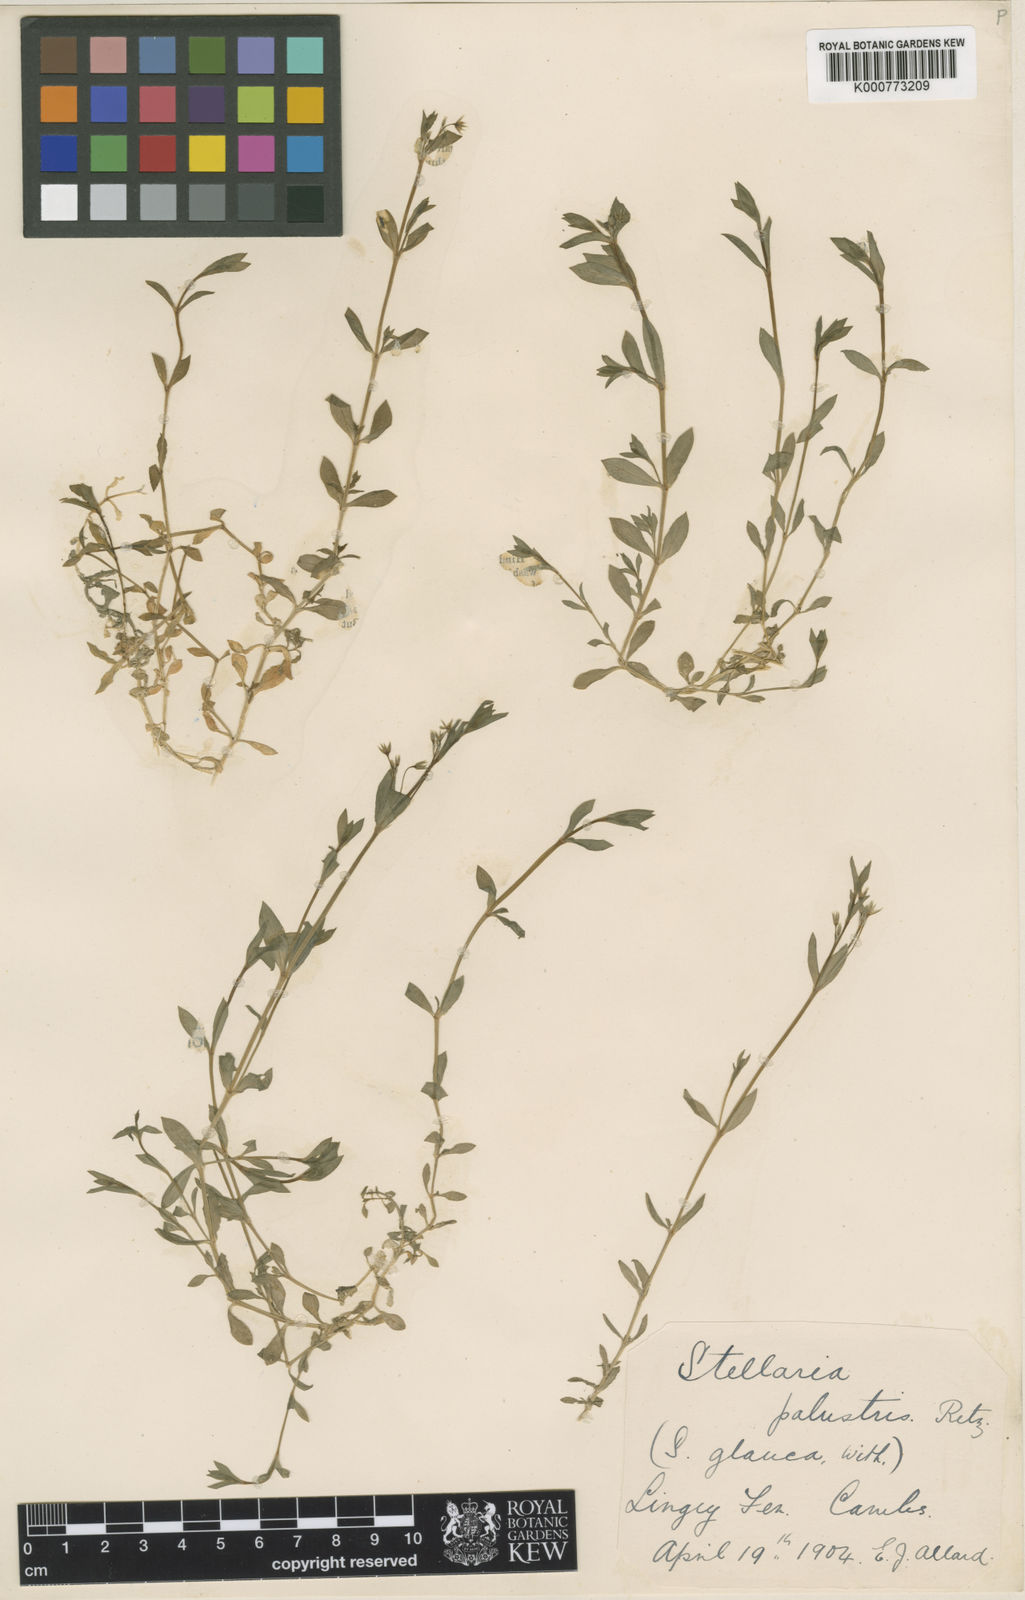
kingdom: Plantae
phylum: Tracheophyta
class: Magnoliopsida
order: Caryophyllales
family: Caryophyllaceae
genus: Stellaria
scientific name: Stellaria
